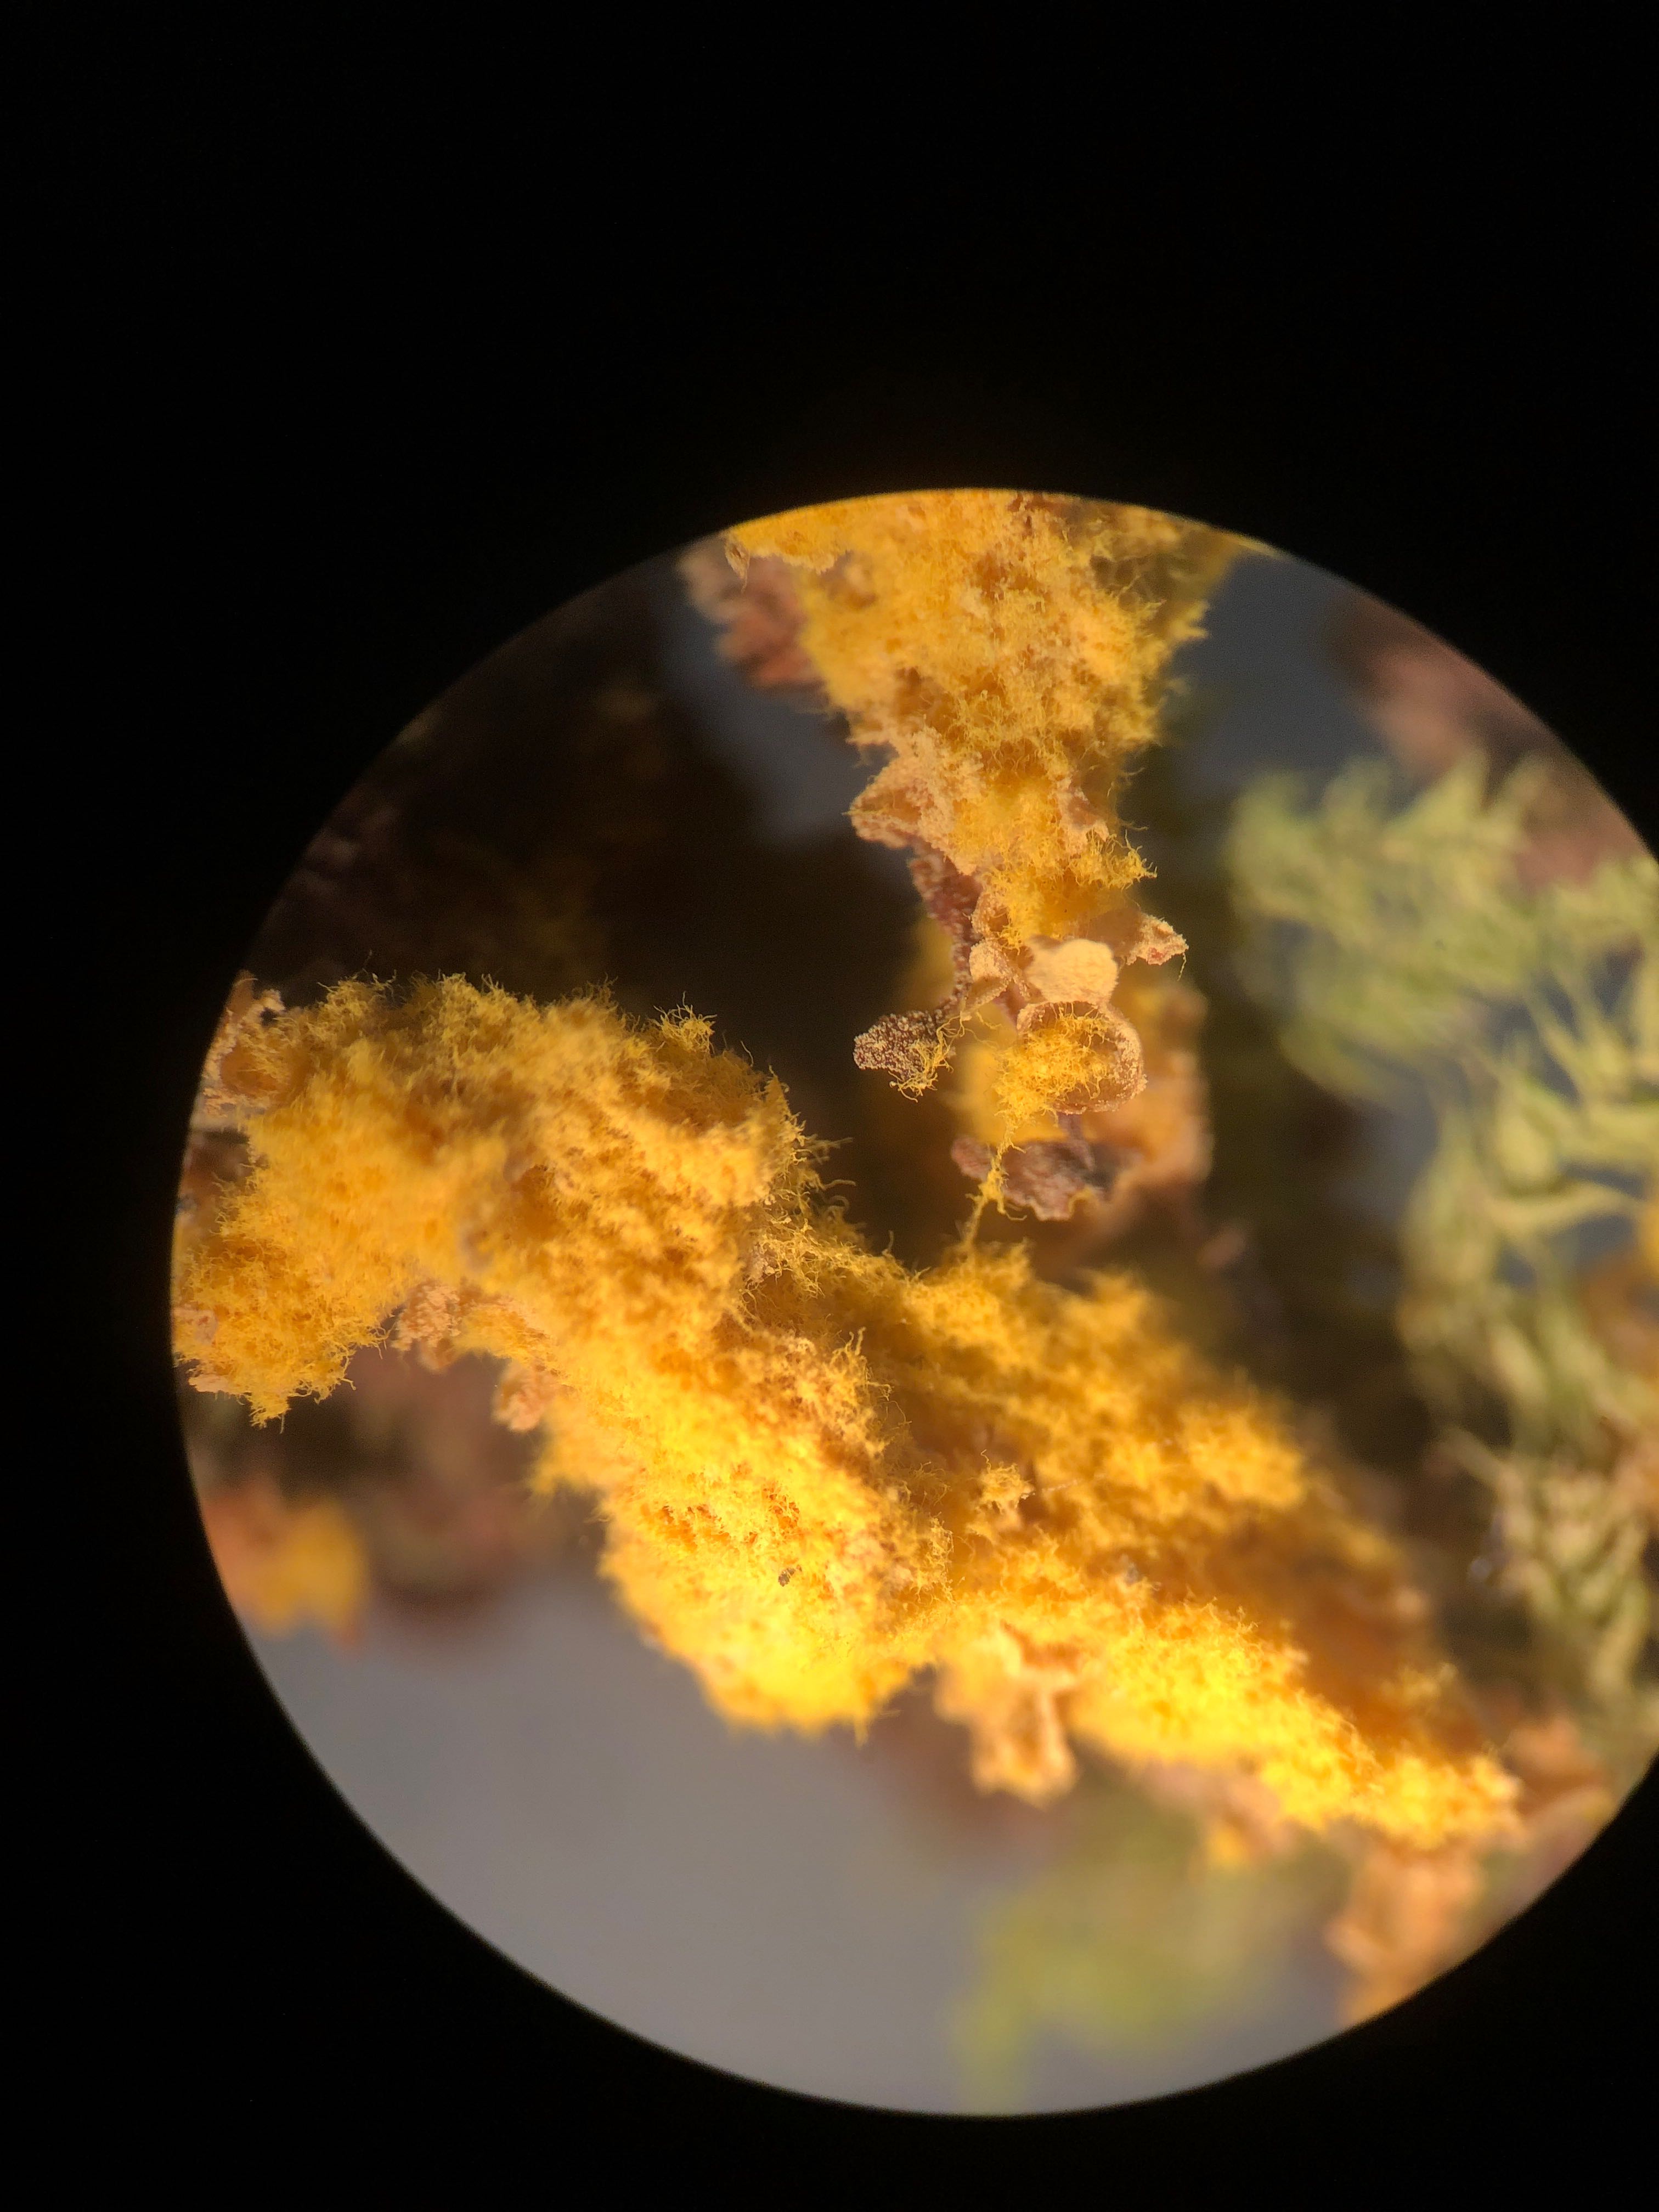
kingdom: Protozoa
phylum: Mycetozoa
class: Myxomycetes
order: Trichiales
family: Trichiaceae
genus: Trichia
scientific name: Trichia favoginea
